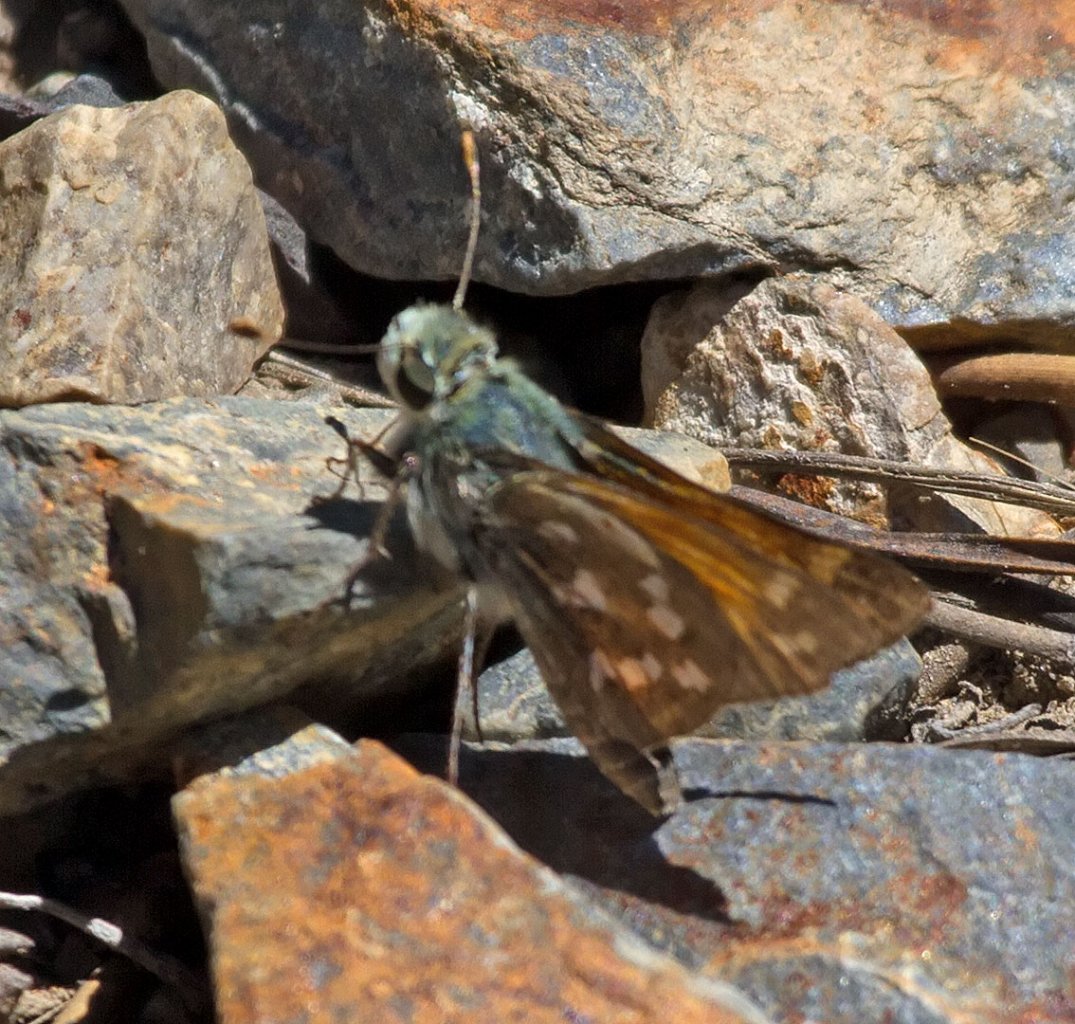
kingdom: Animalia
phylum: Arthropoda
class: Insecta
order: Lepidoptera
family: Hesperiidae
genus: Hesperia
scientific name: Hesperia juba
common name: Juba Skipper
